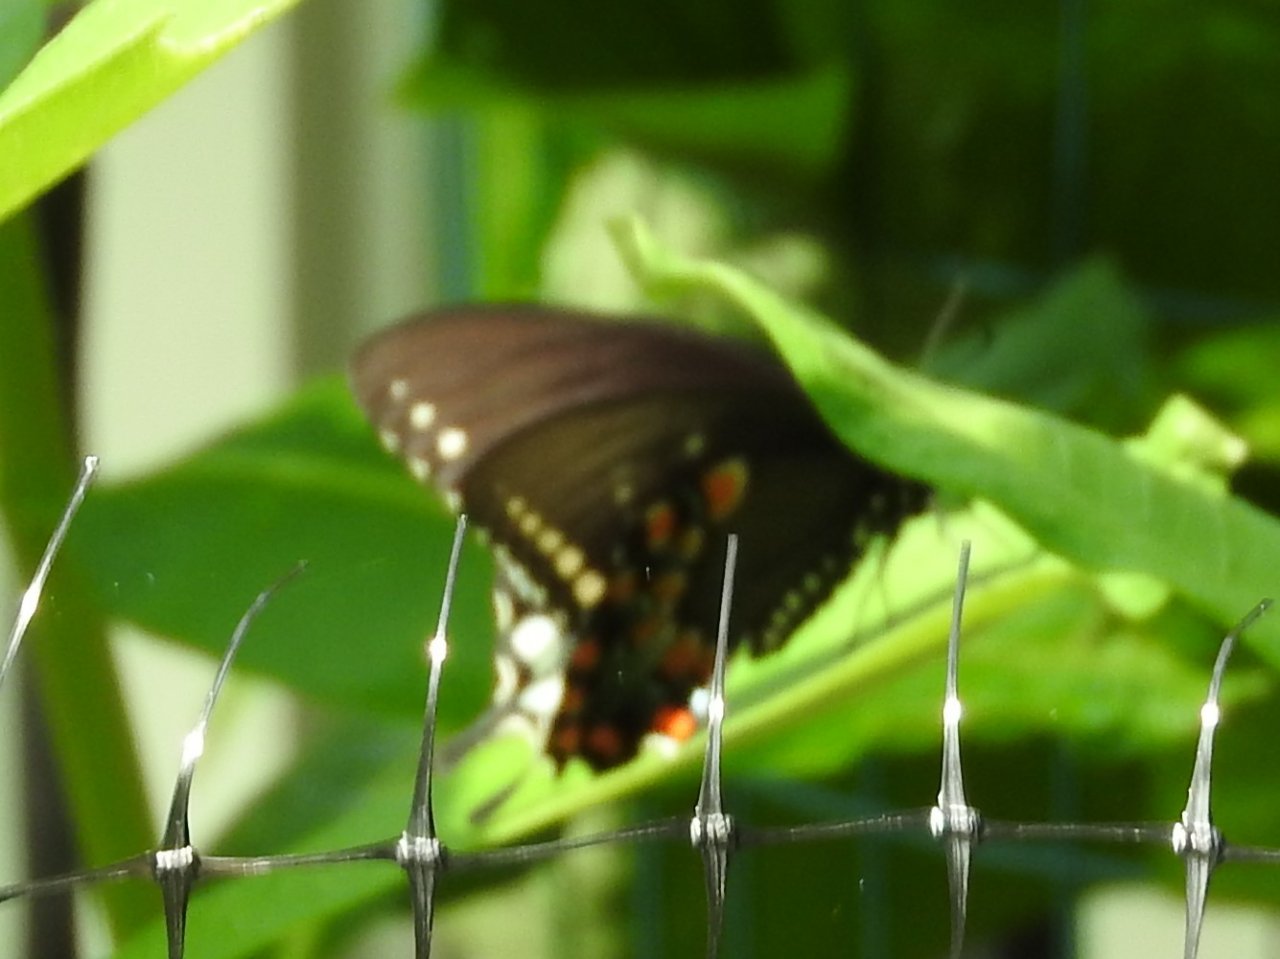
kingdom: Animalia
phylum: Arthropoda
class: Insecta
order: Lepidoptera
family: Papilionidae
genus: Pterourus
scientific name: Pterourus troilus
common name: Spicebush Swallowtail
